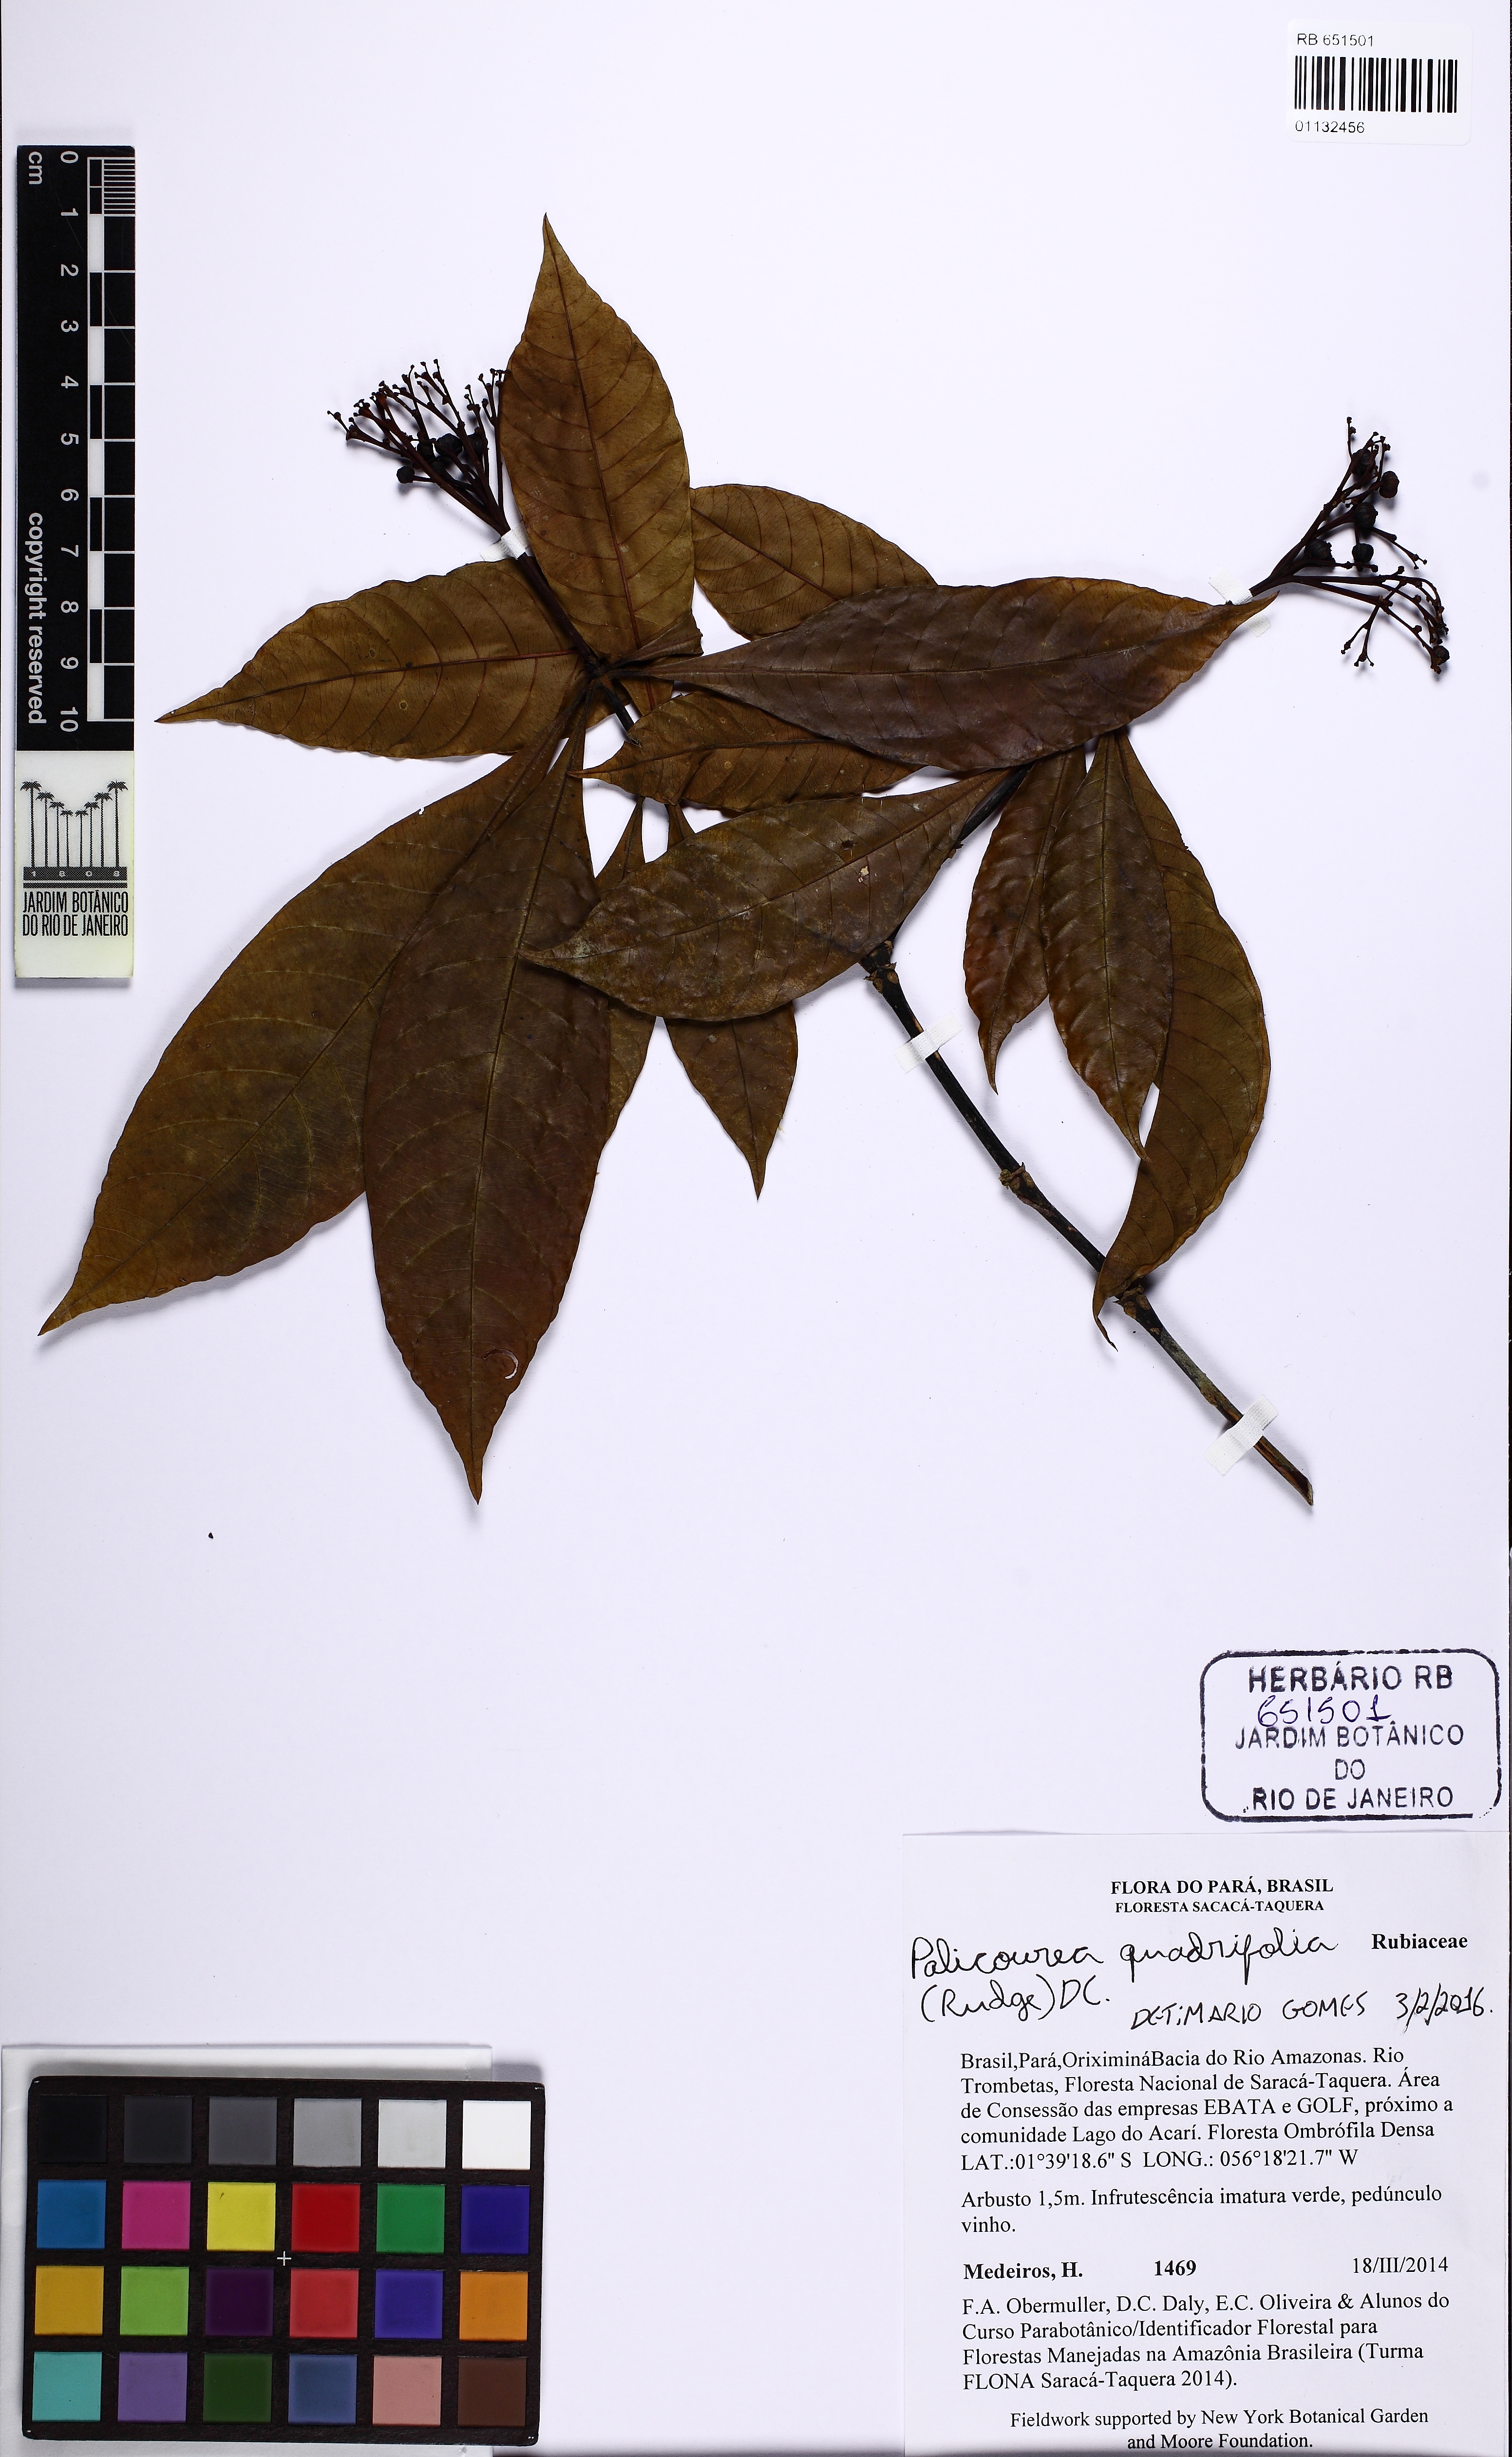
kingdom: Plantae
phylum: Tracheophyta
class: Magnoliopsida
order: Gentianales
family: Rubiaceae
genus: Palicourea
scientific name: Palicourea quadrifolia
